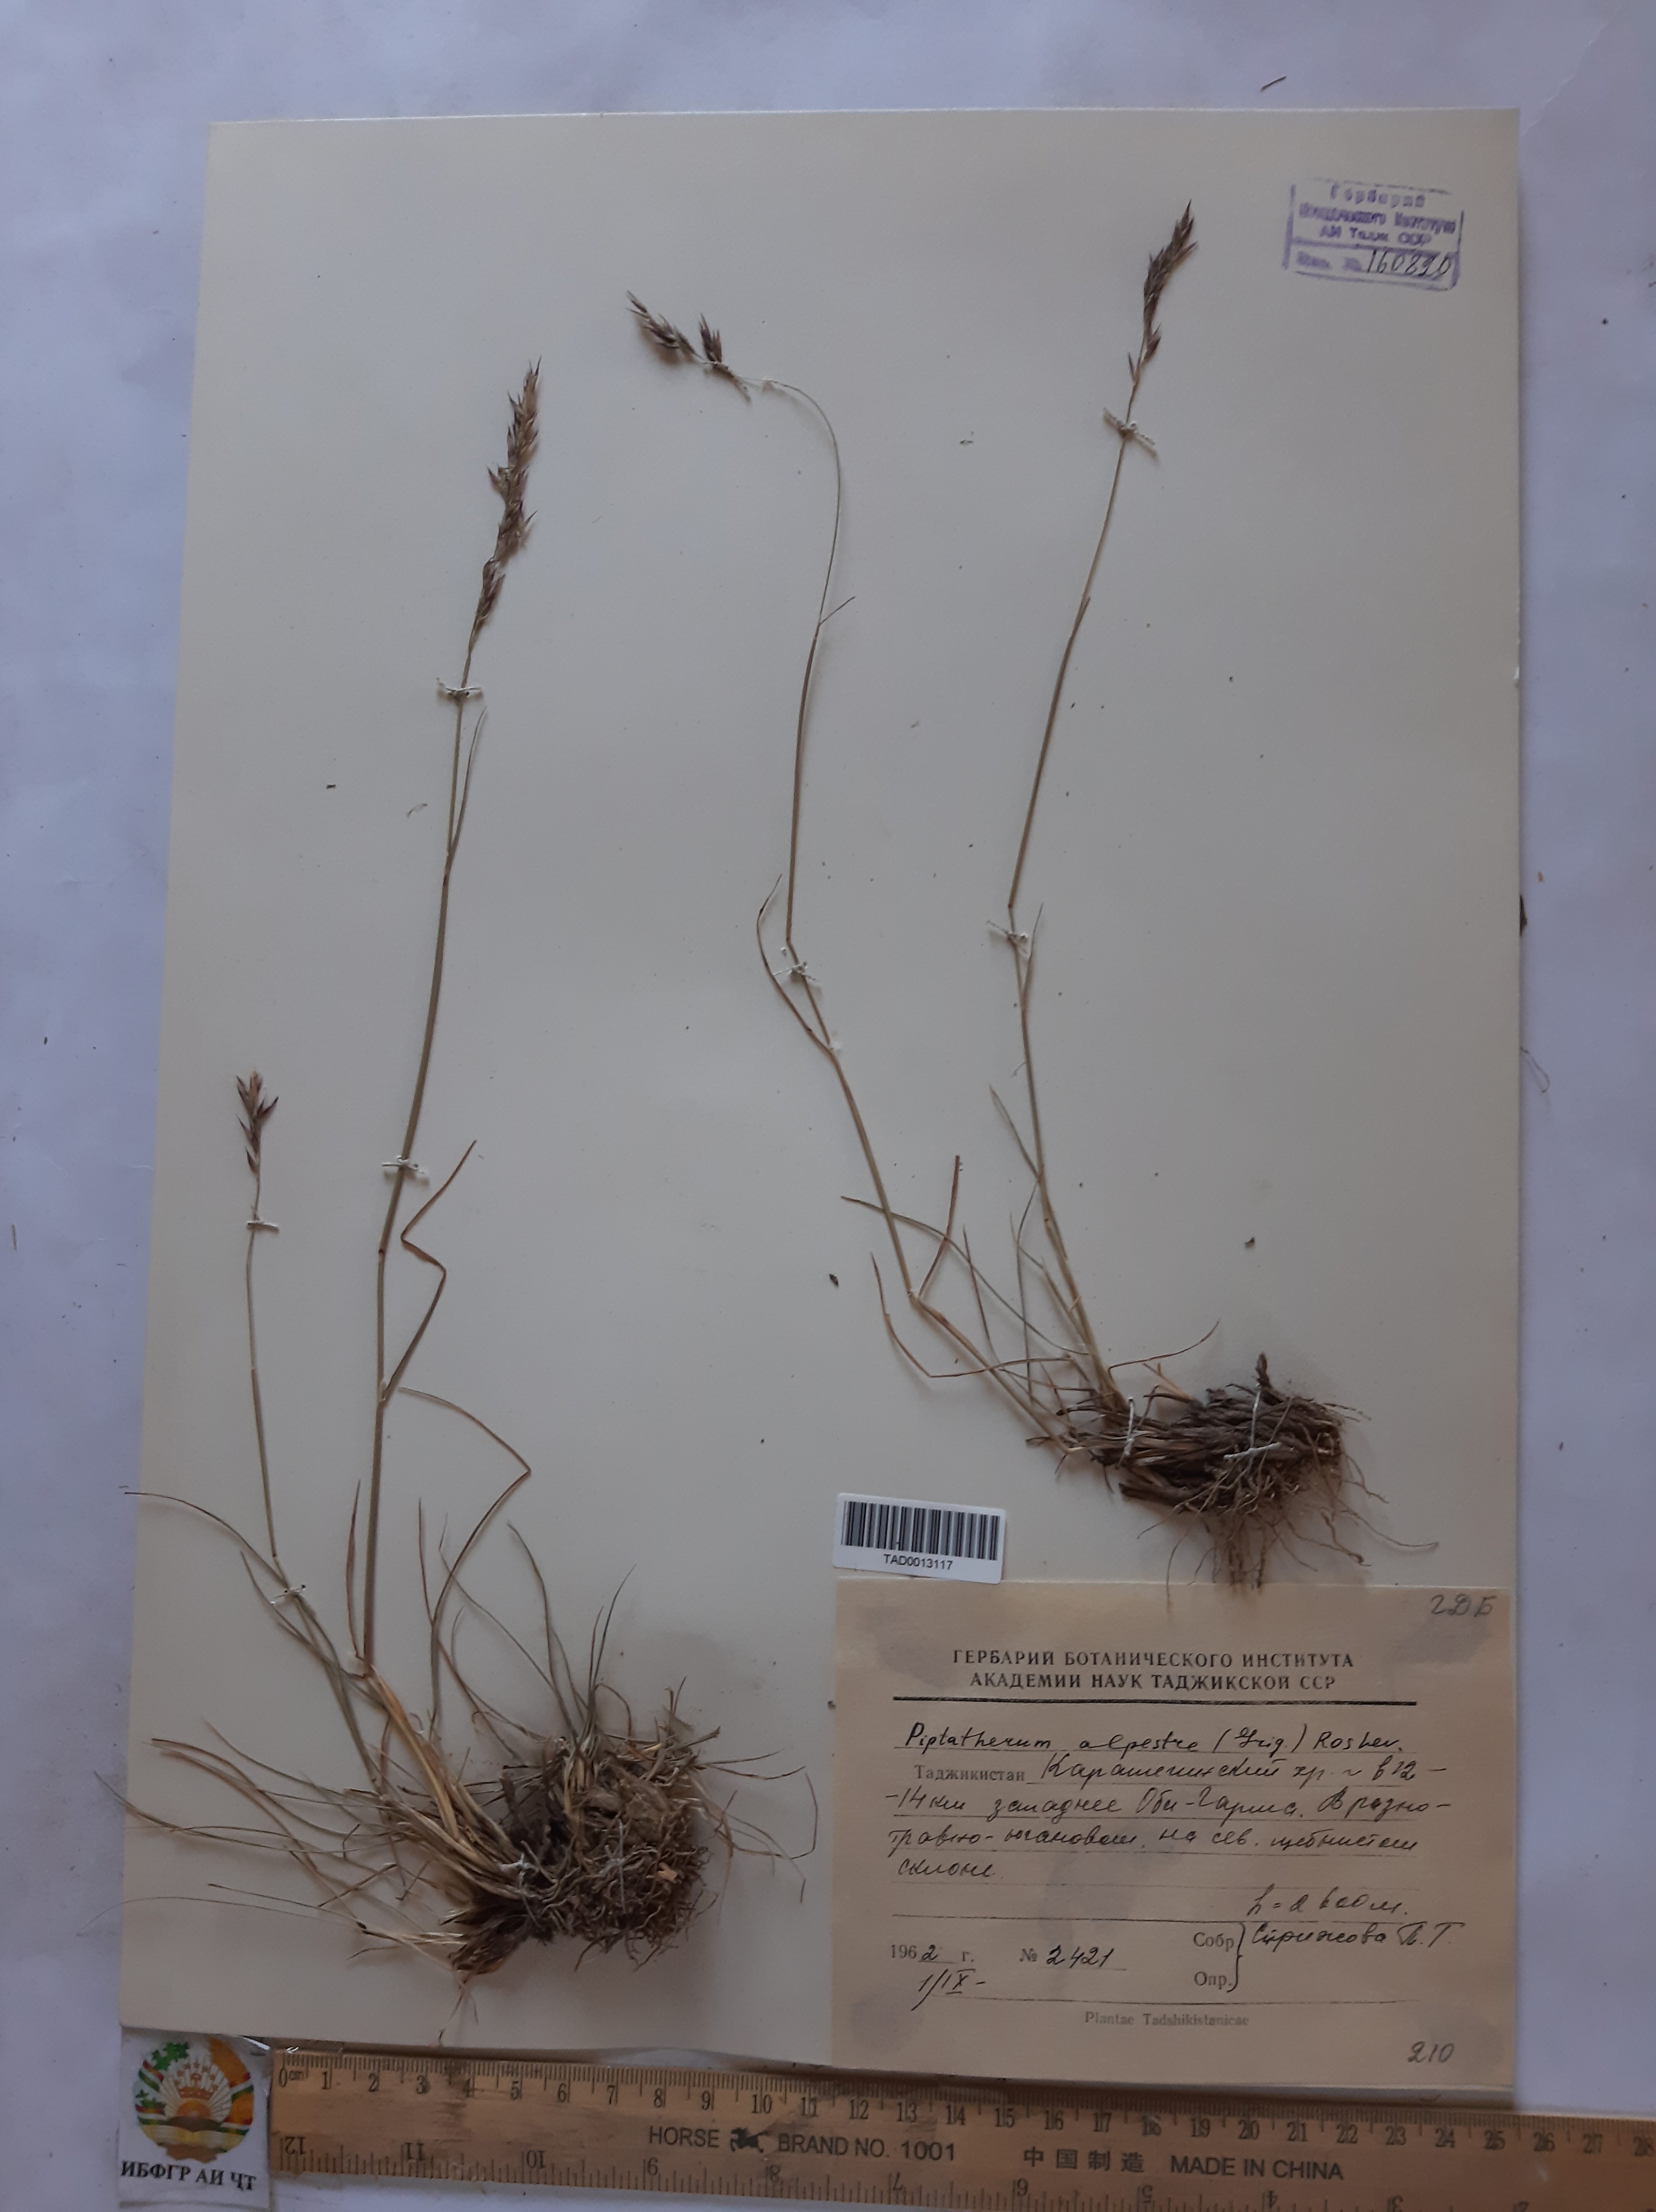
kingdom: Plantae
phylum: Tracheophyta
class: Liliopsida
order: Poales
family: Poaceae
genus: Piptatherum
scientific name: Piptatherum alpestre
